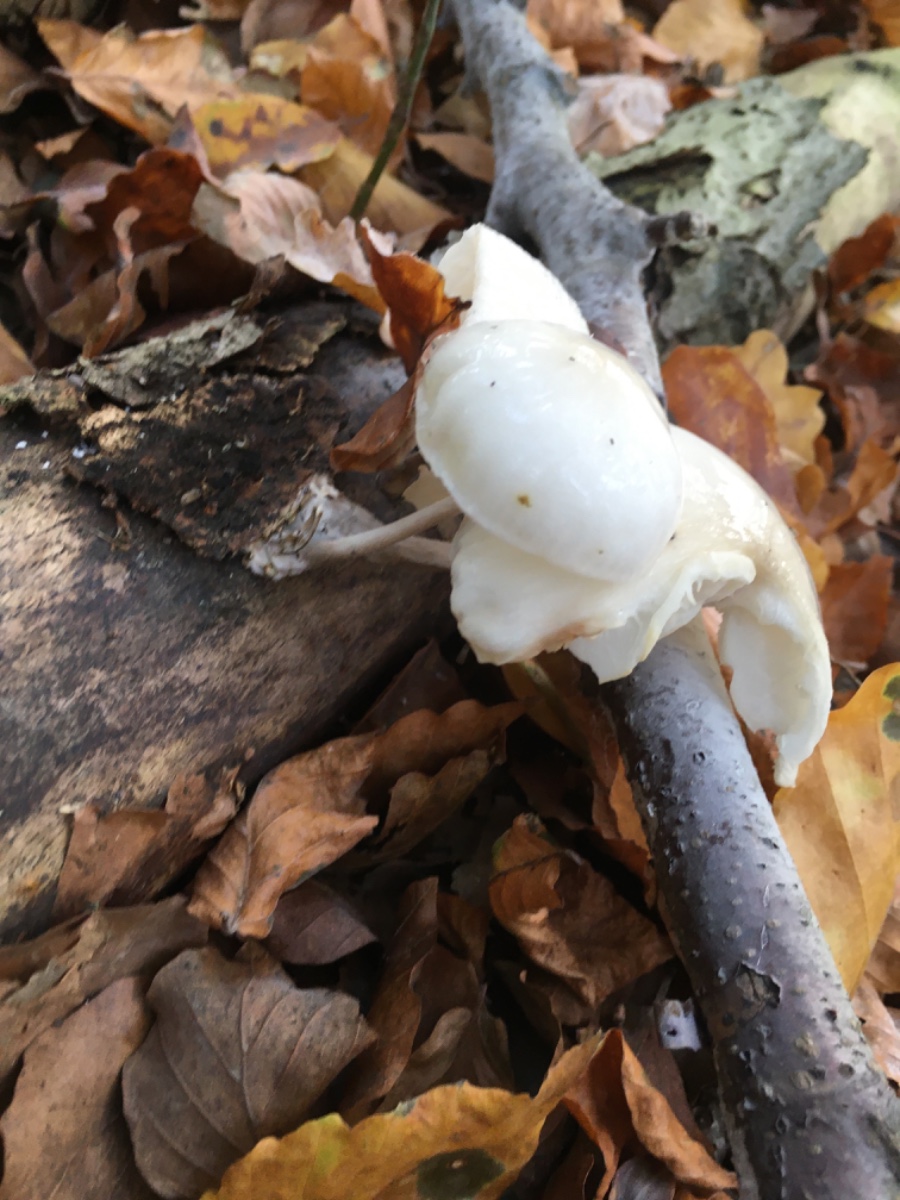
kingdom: Fungi
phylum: Basidiomycota
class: Agaricomycetes
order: Agaricales
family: Physalacriaceae
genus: Mucidula
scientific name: Mucidula mucida
